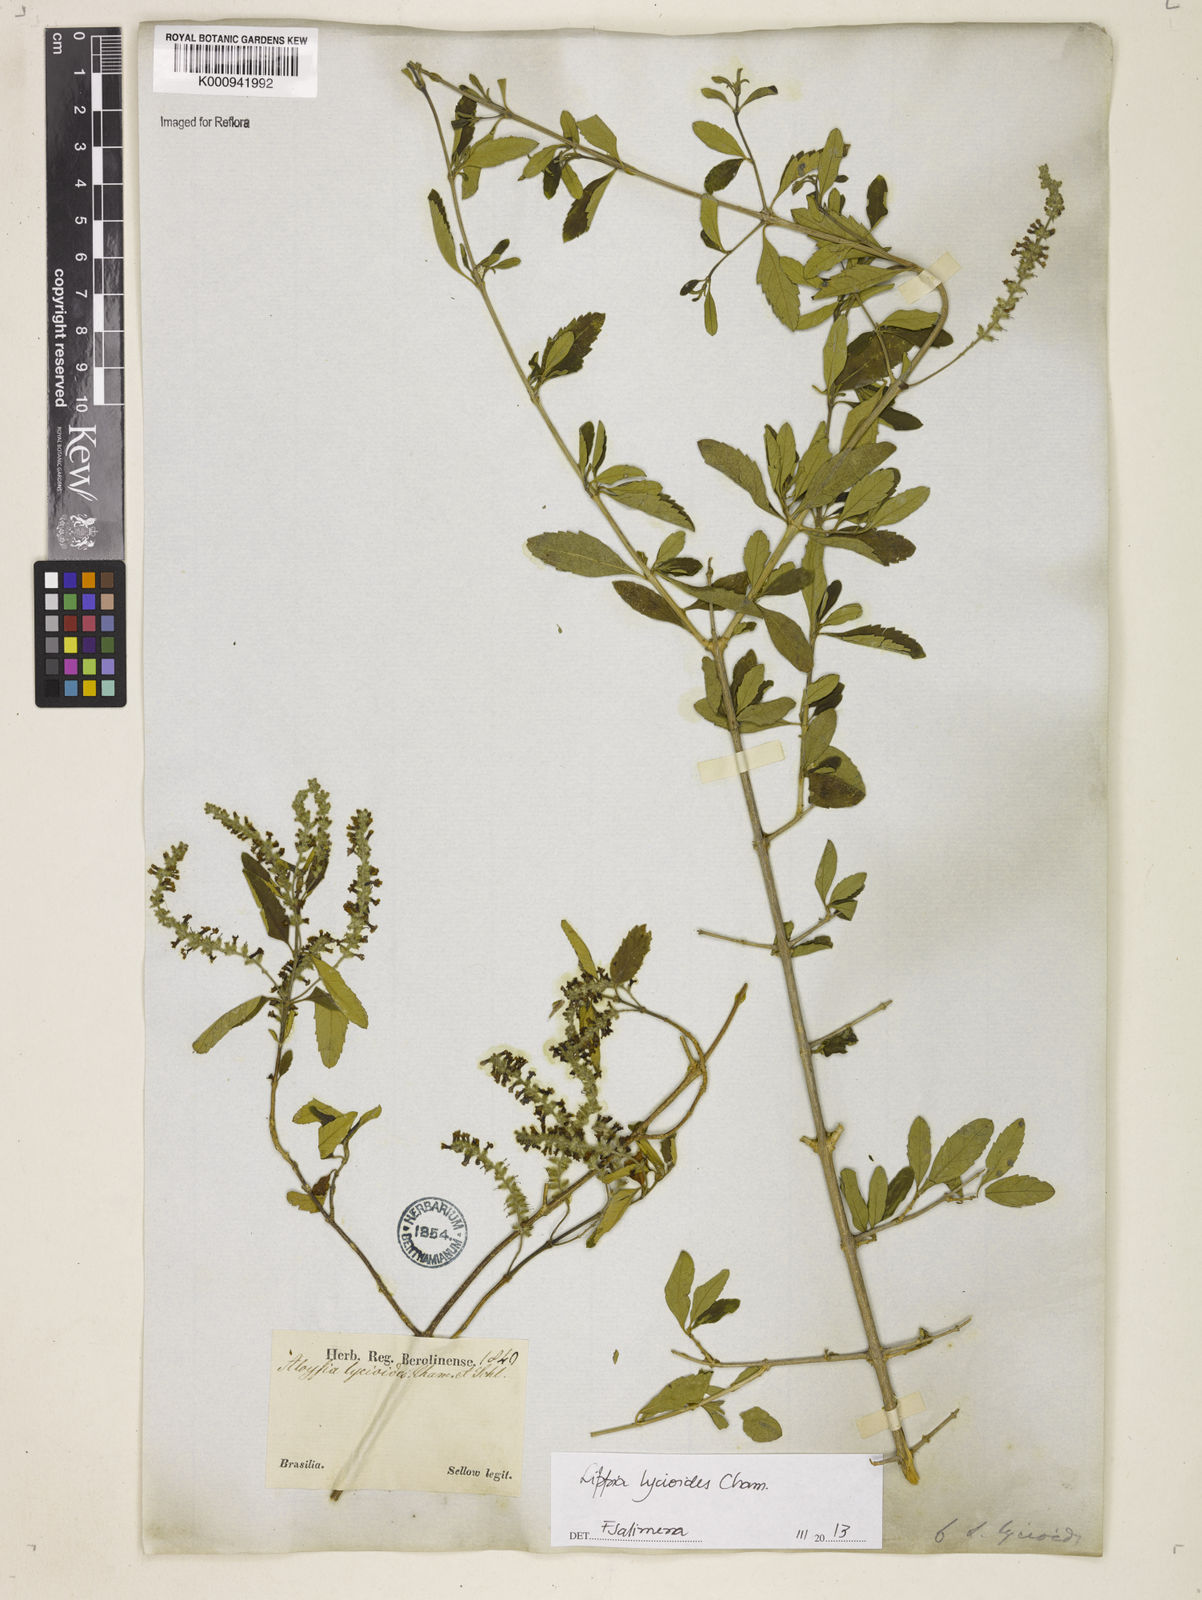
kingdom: Plantae
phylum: Tracheophyta
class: Magnoliopsida
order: Lamiales
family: Verbenaceae
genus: Aloysia
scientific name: Aloysia
